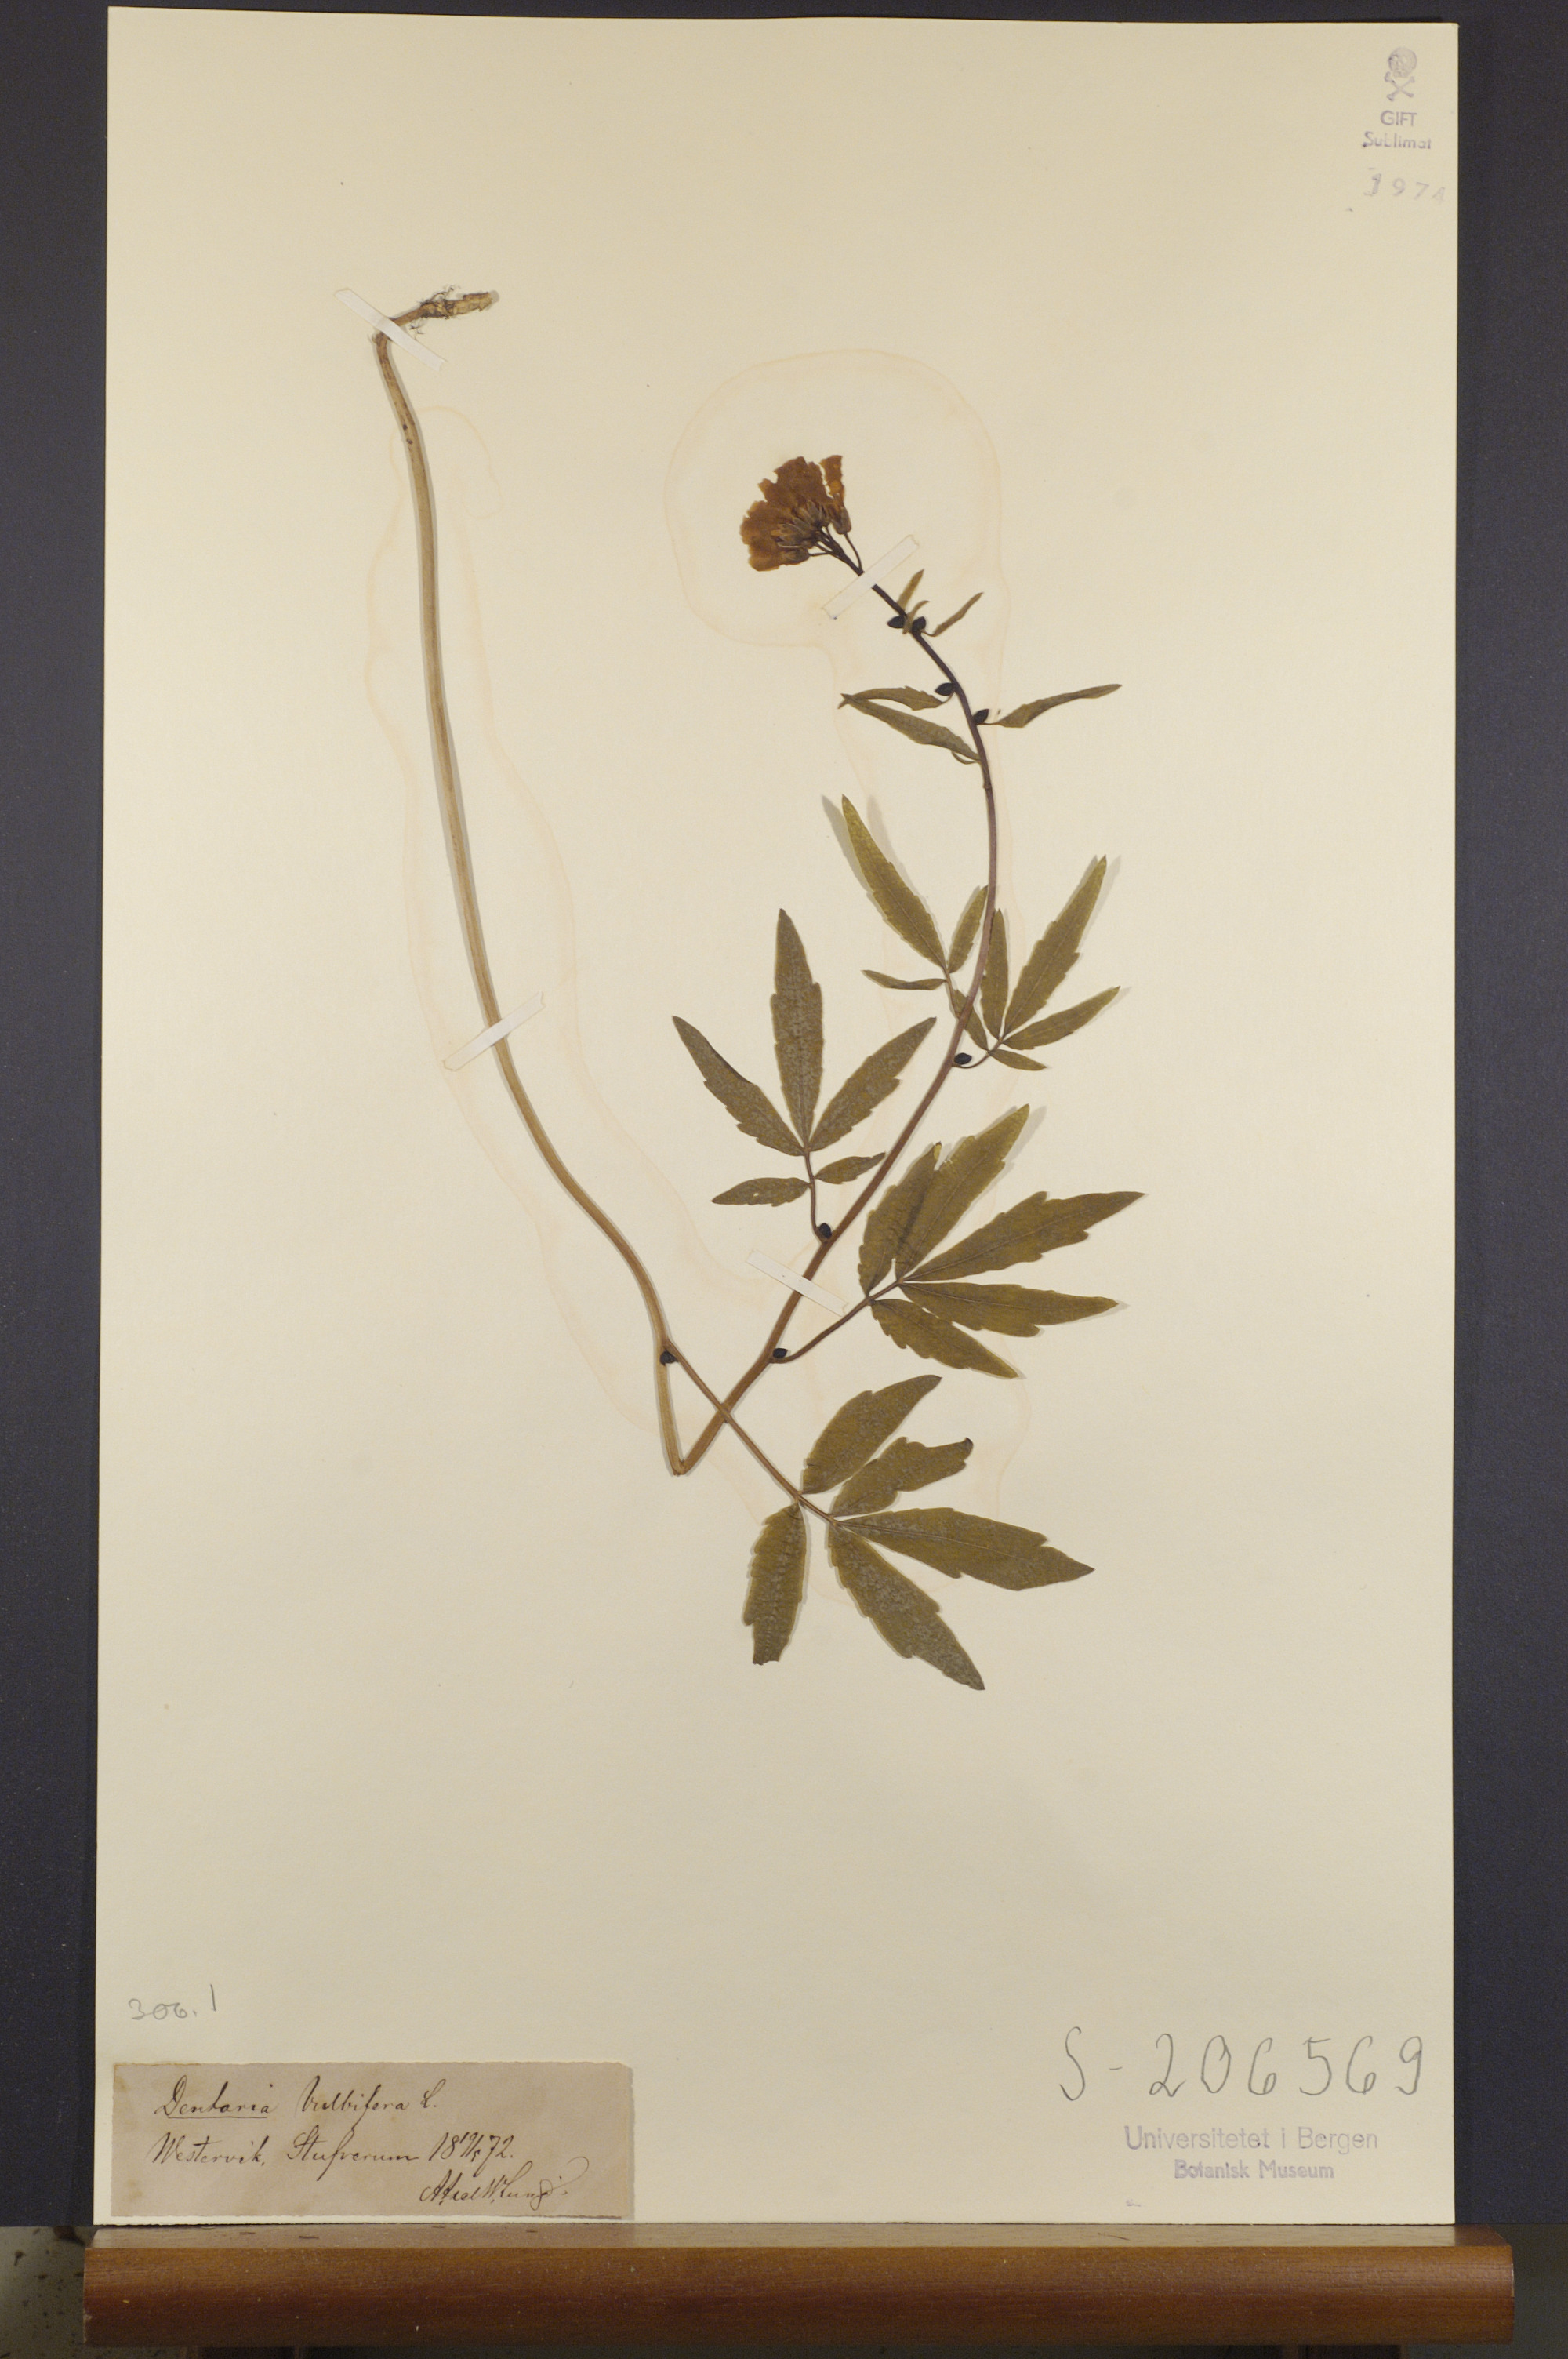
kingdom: Plantae
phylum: Tracheophyta
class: Magnoliopsida
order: Brassicales
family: Brassicaceae
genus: Cardamine
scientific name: Cardamine bulbifera
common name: Coralroot bittercress
